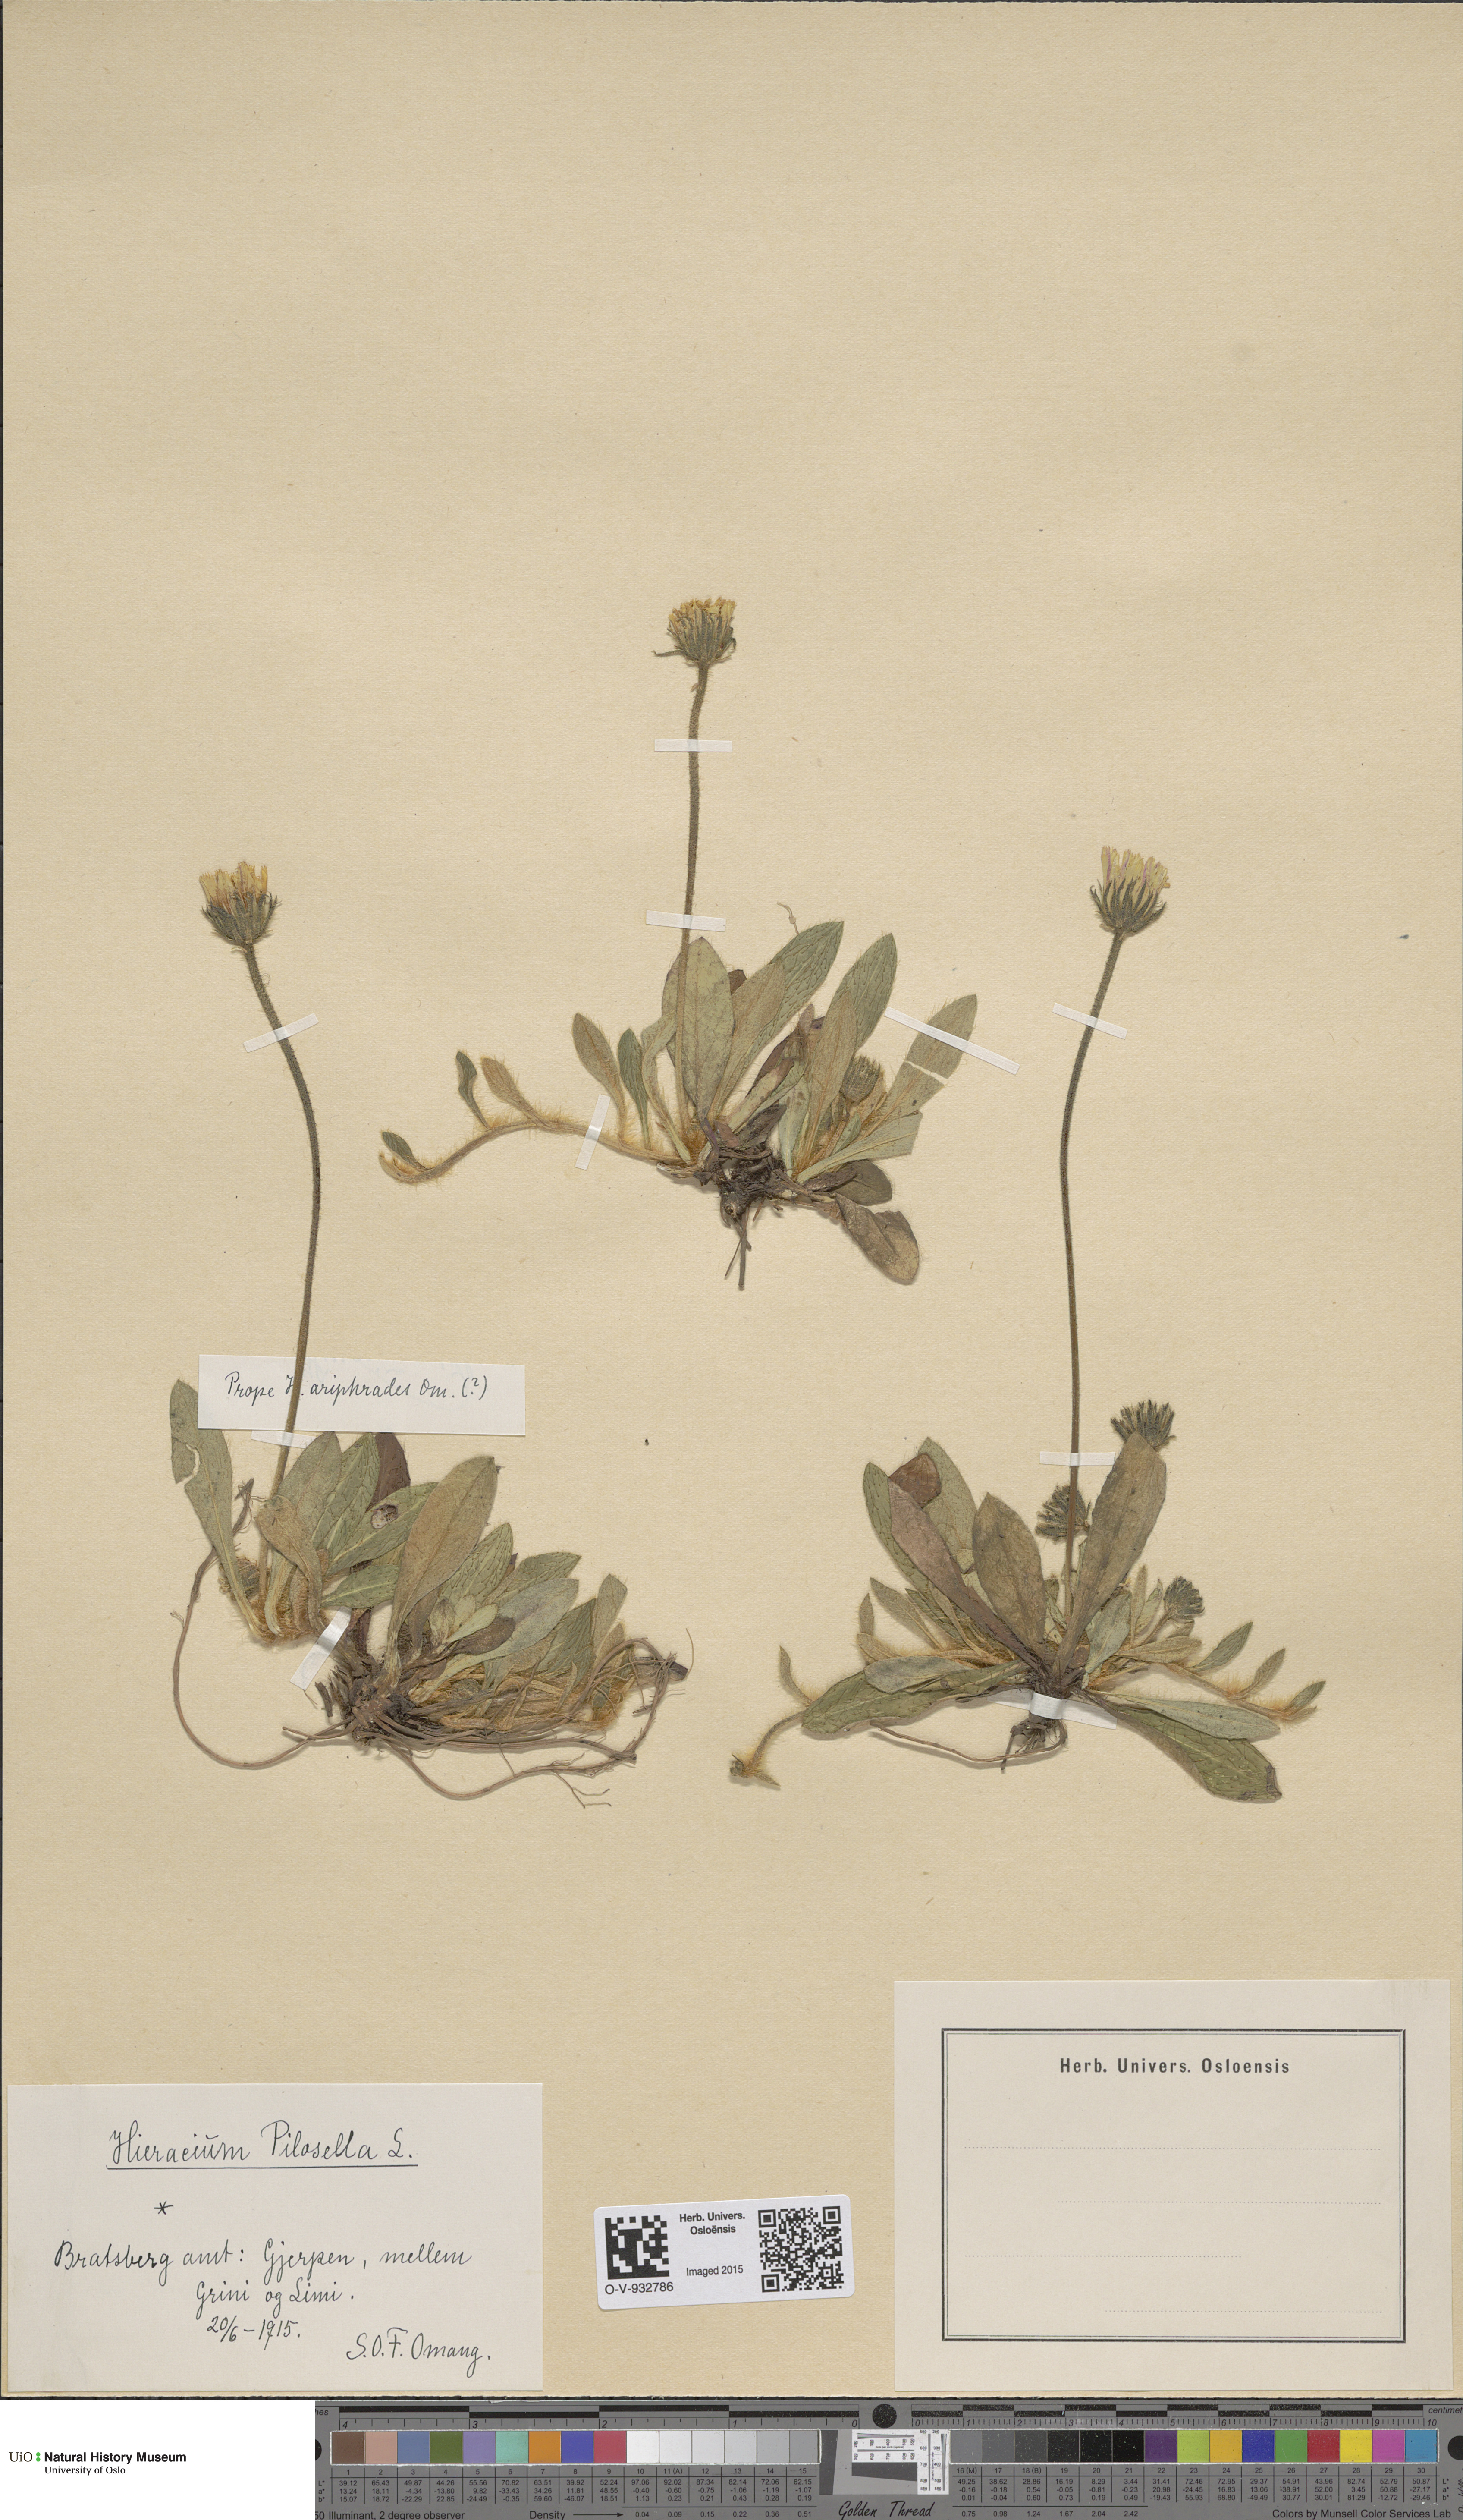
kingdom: Plantae
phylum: Tracheophyta
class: Magnoliopsida
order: Asterales
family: Asteraceae
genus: Pilosella
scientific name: Pilosella officinarum
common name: Mouse-ear hawkweed
